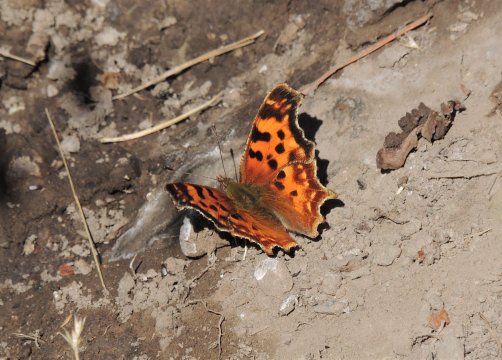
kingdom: Animalia
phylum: Arthropoda
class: Insecta
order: Lepidoptera
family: Nymphalidae
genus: Polygonia
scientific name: Polygonia satyrus
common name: Satyr Comma
